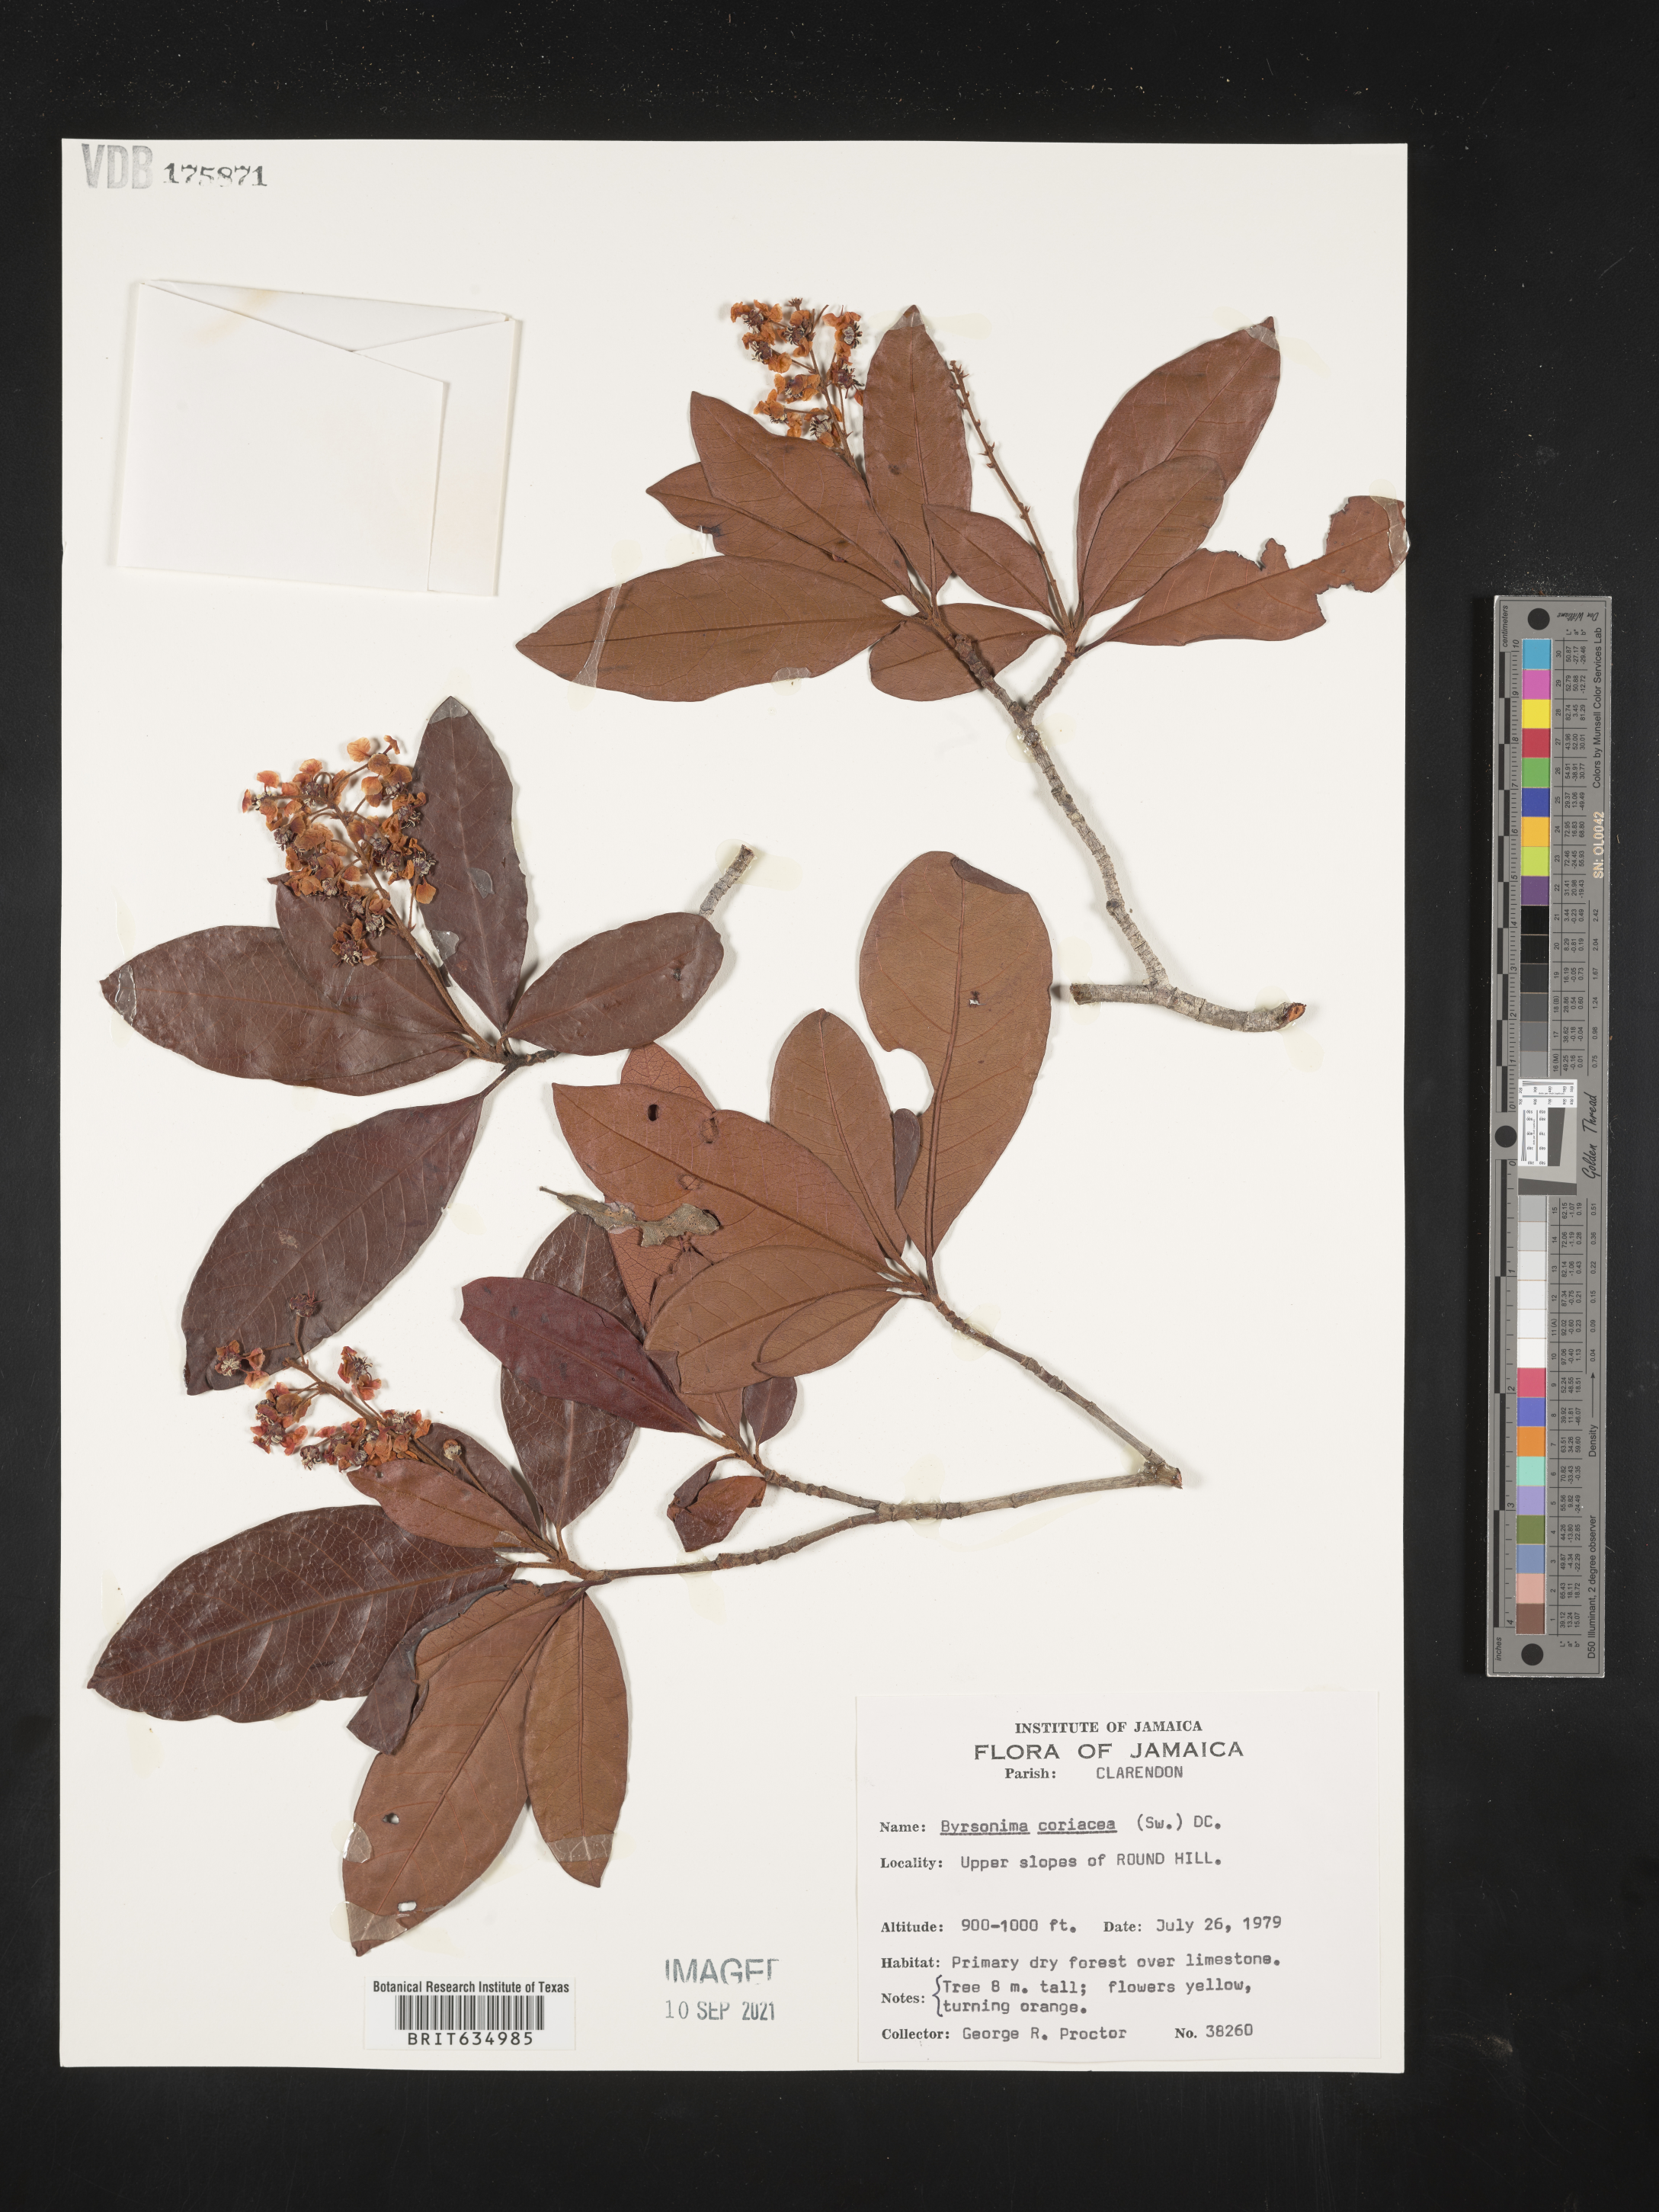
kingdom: Plantae
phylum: Tracheophyta
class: Magnoliopsida
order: Malpighiales
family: Malpighiaceae
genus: Byrsonima
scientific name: Byrsonima
